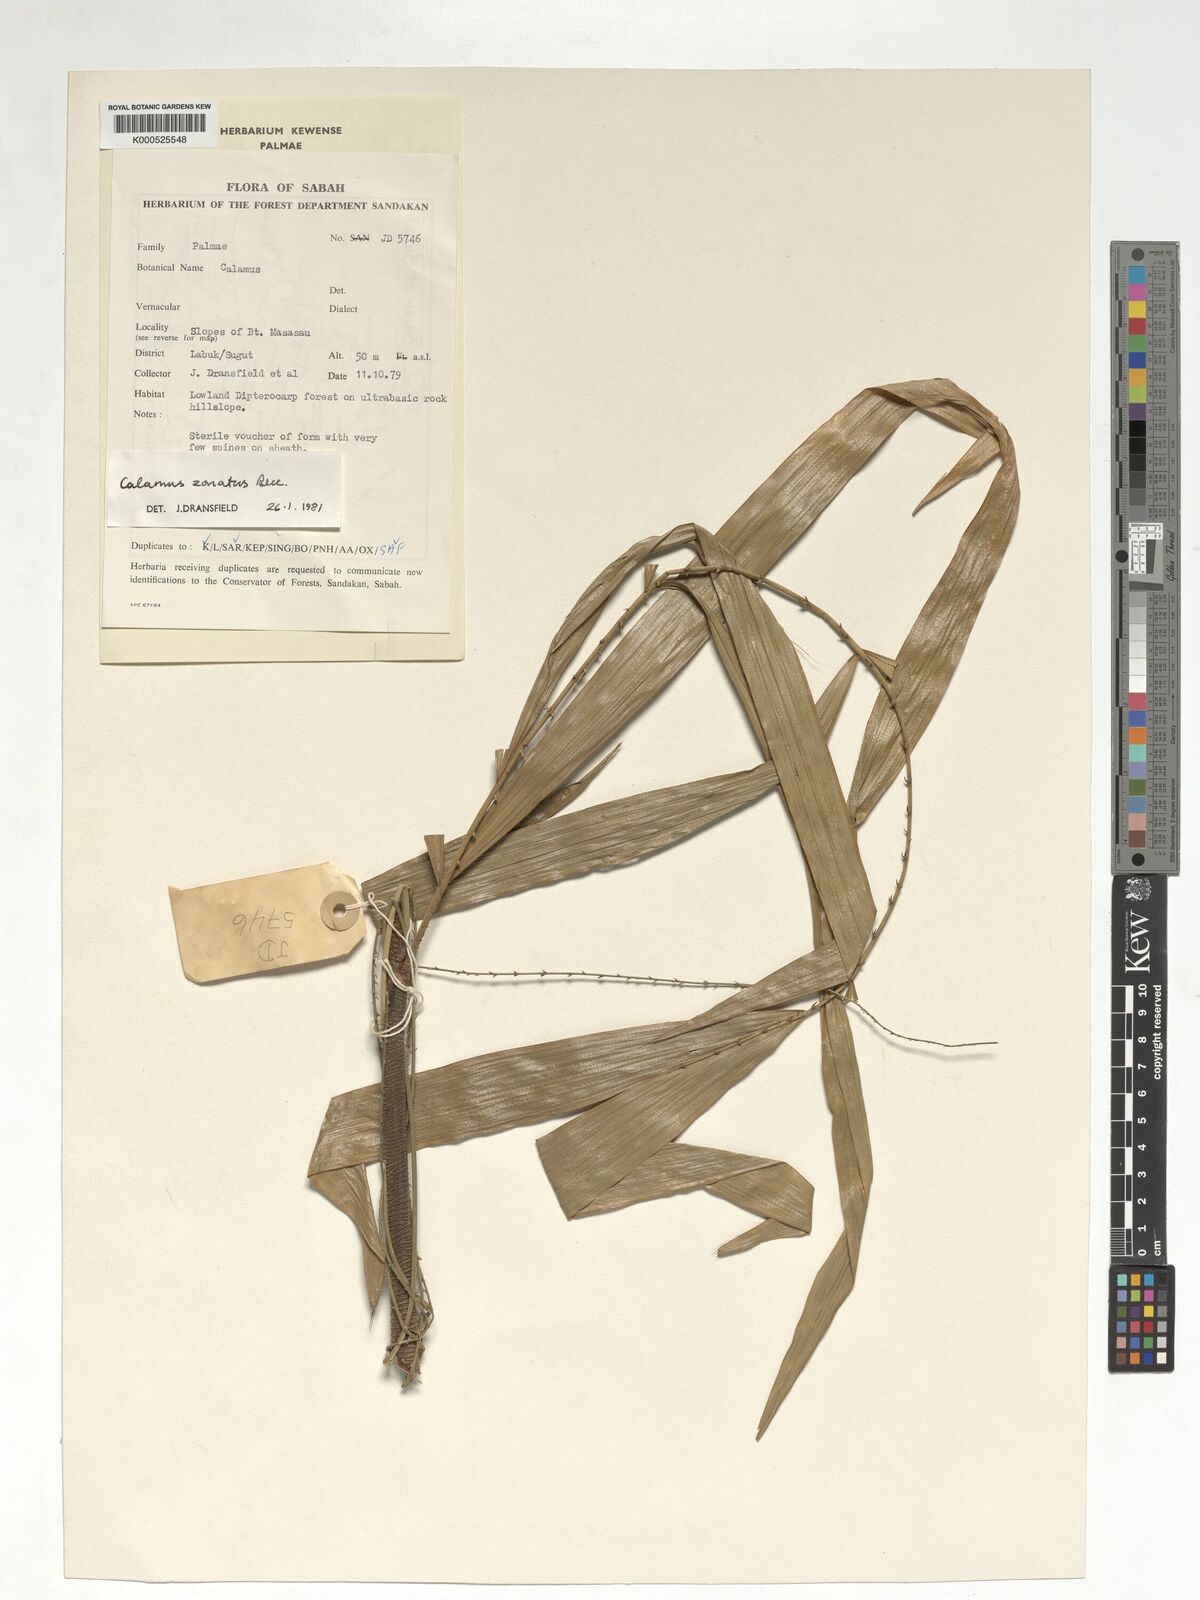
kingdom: Plantae
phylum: Tracheophyta
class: Liliopsida
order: Arecales
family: Arecaceae
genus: Calamus
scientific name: Calamus zonatus
